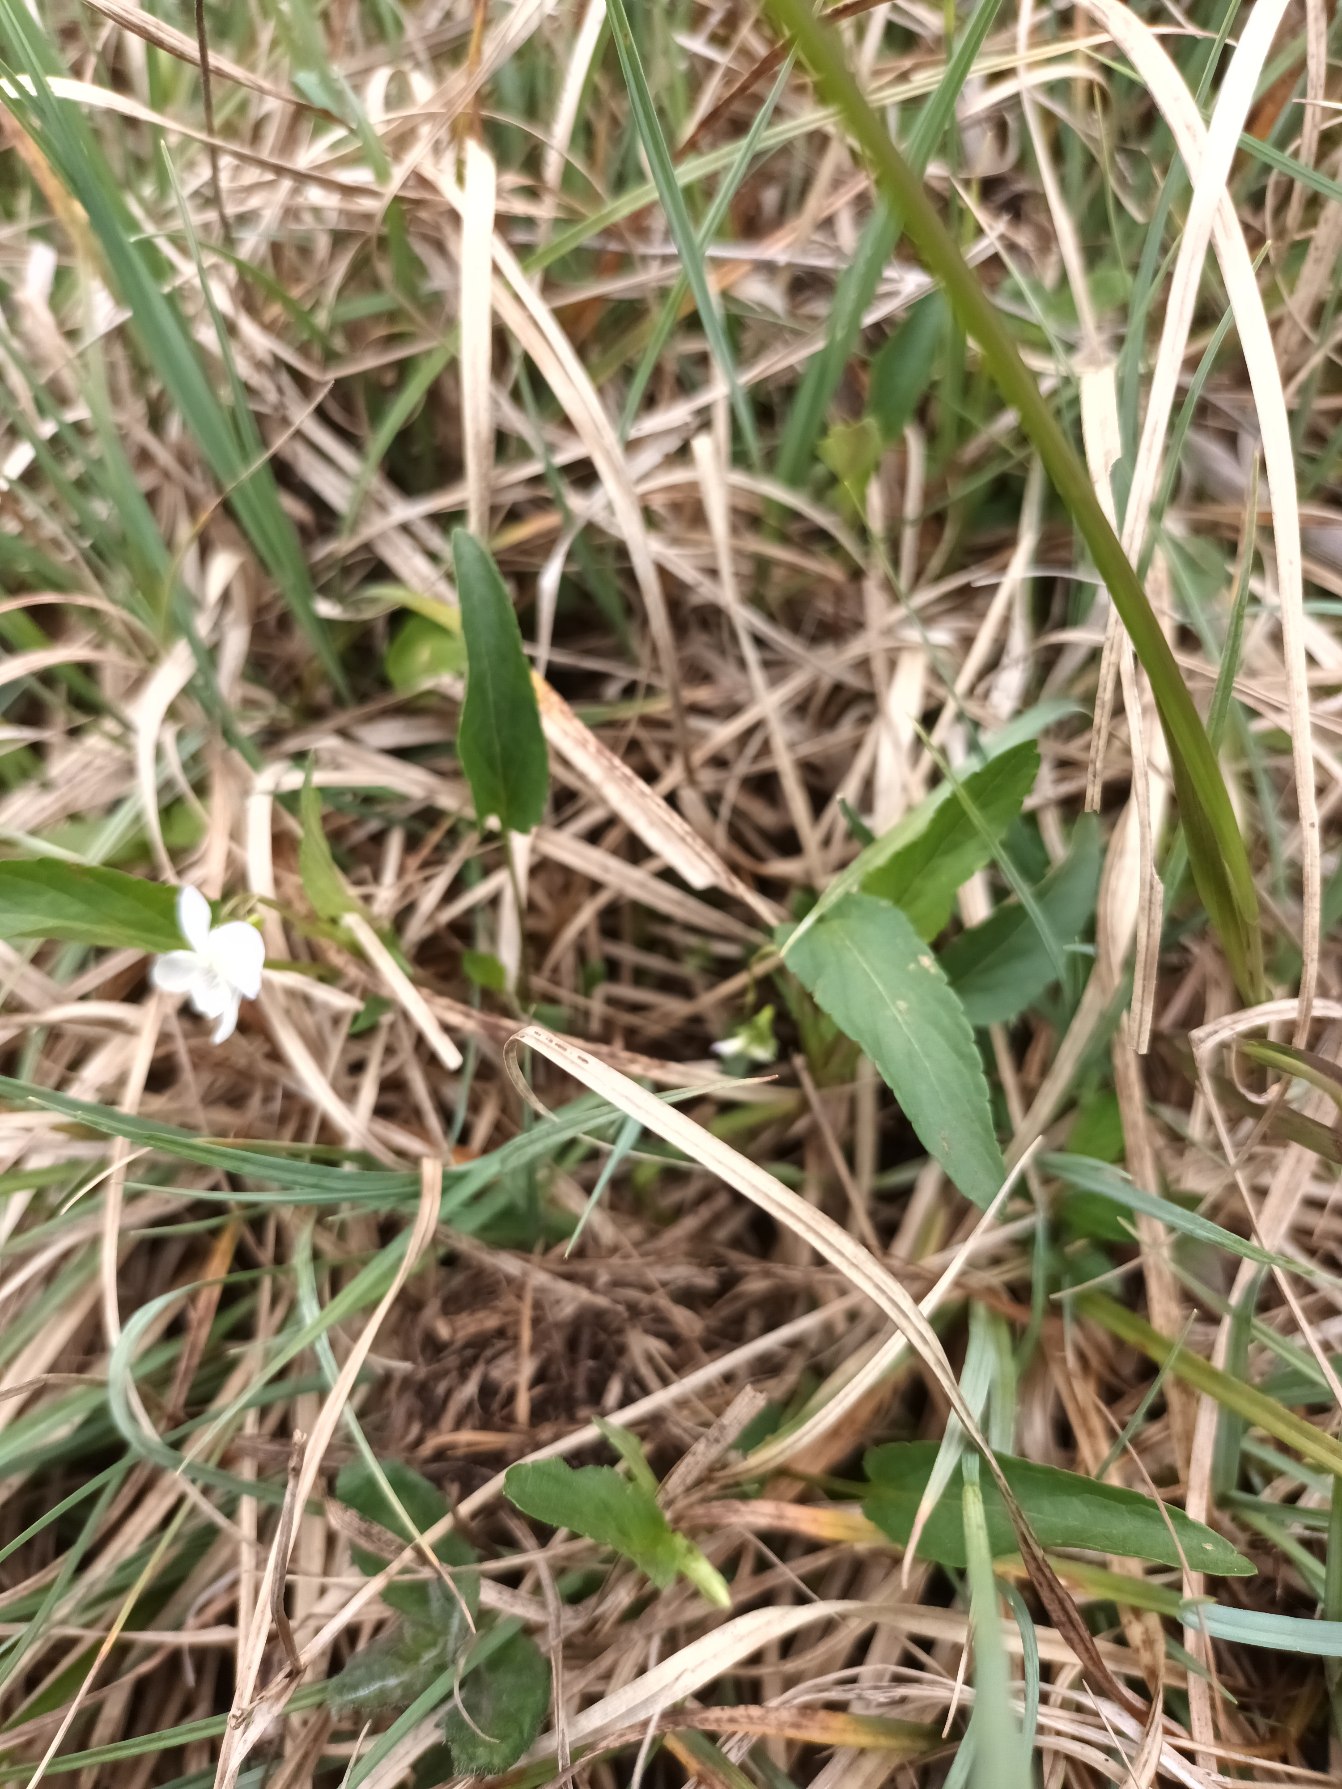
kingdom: Plantae
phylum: Tracheophyta
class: Magnoliopsida
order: Malpighiales
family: Violaceae
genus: Viola
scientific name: Viola stagnina
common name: Rank viol
